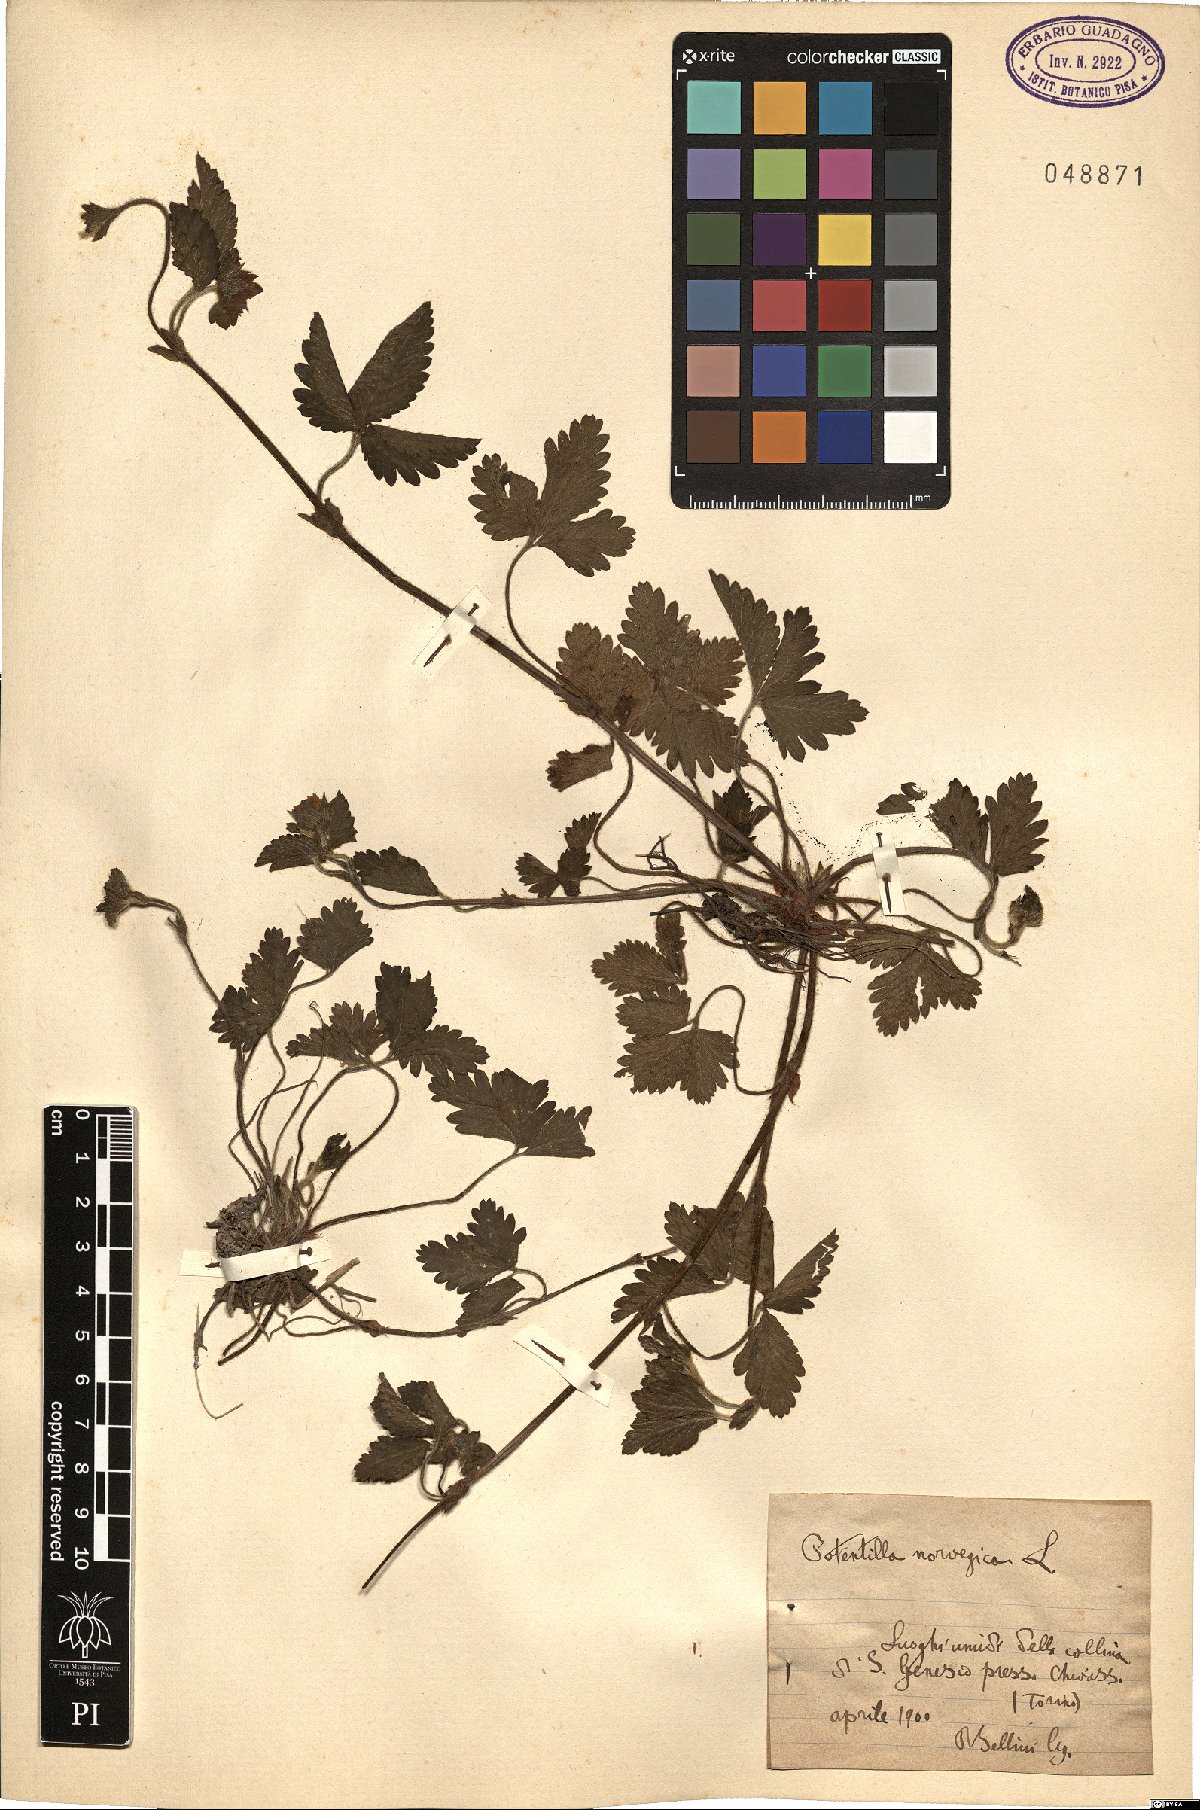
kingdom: Plantae
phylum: Tracheophyta
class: Magnoliopsida
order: Rosales
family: Rosaceae
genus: Potentilla
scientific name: Potentilla norvegica
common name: Ternate-leaved cinquefoil
